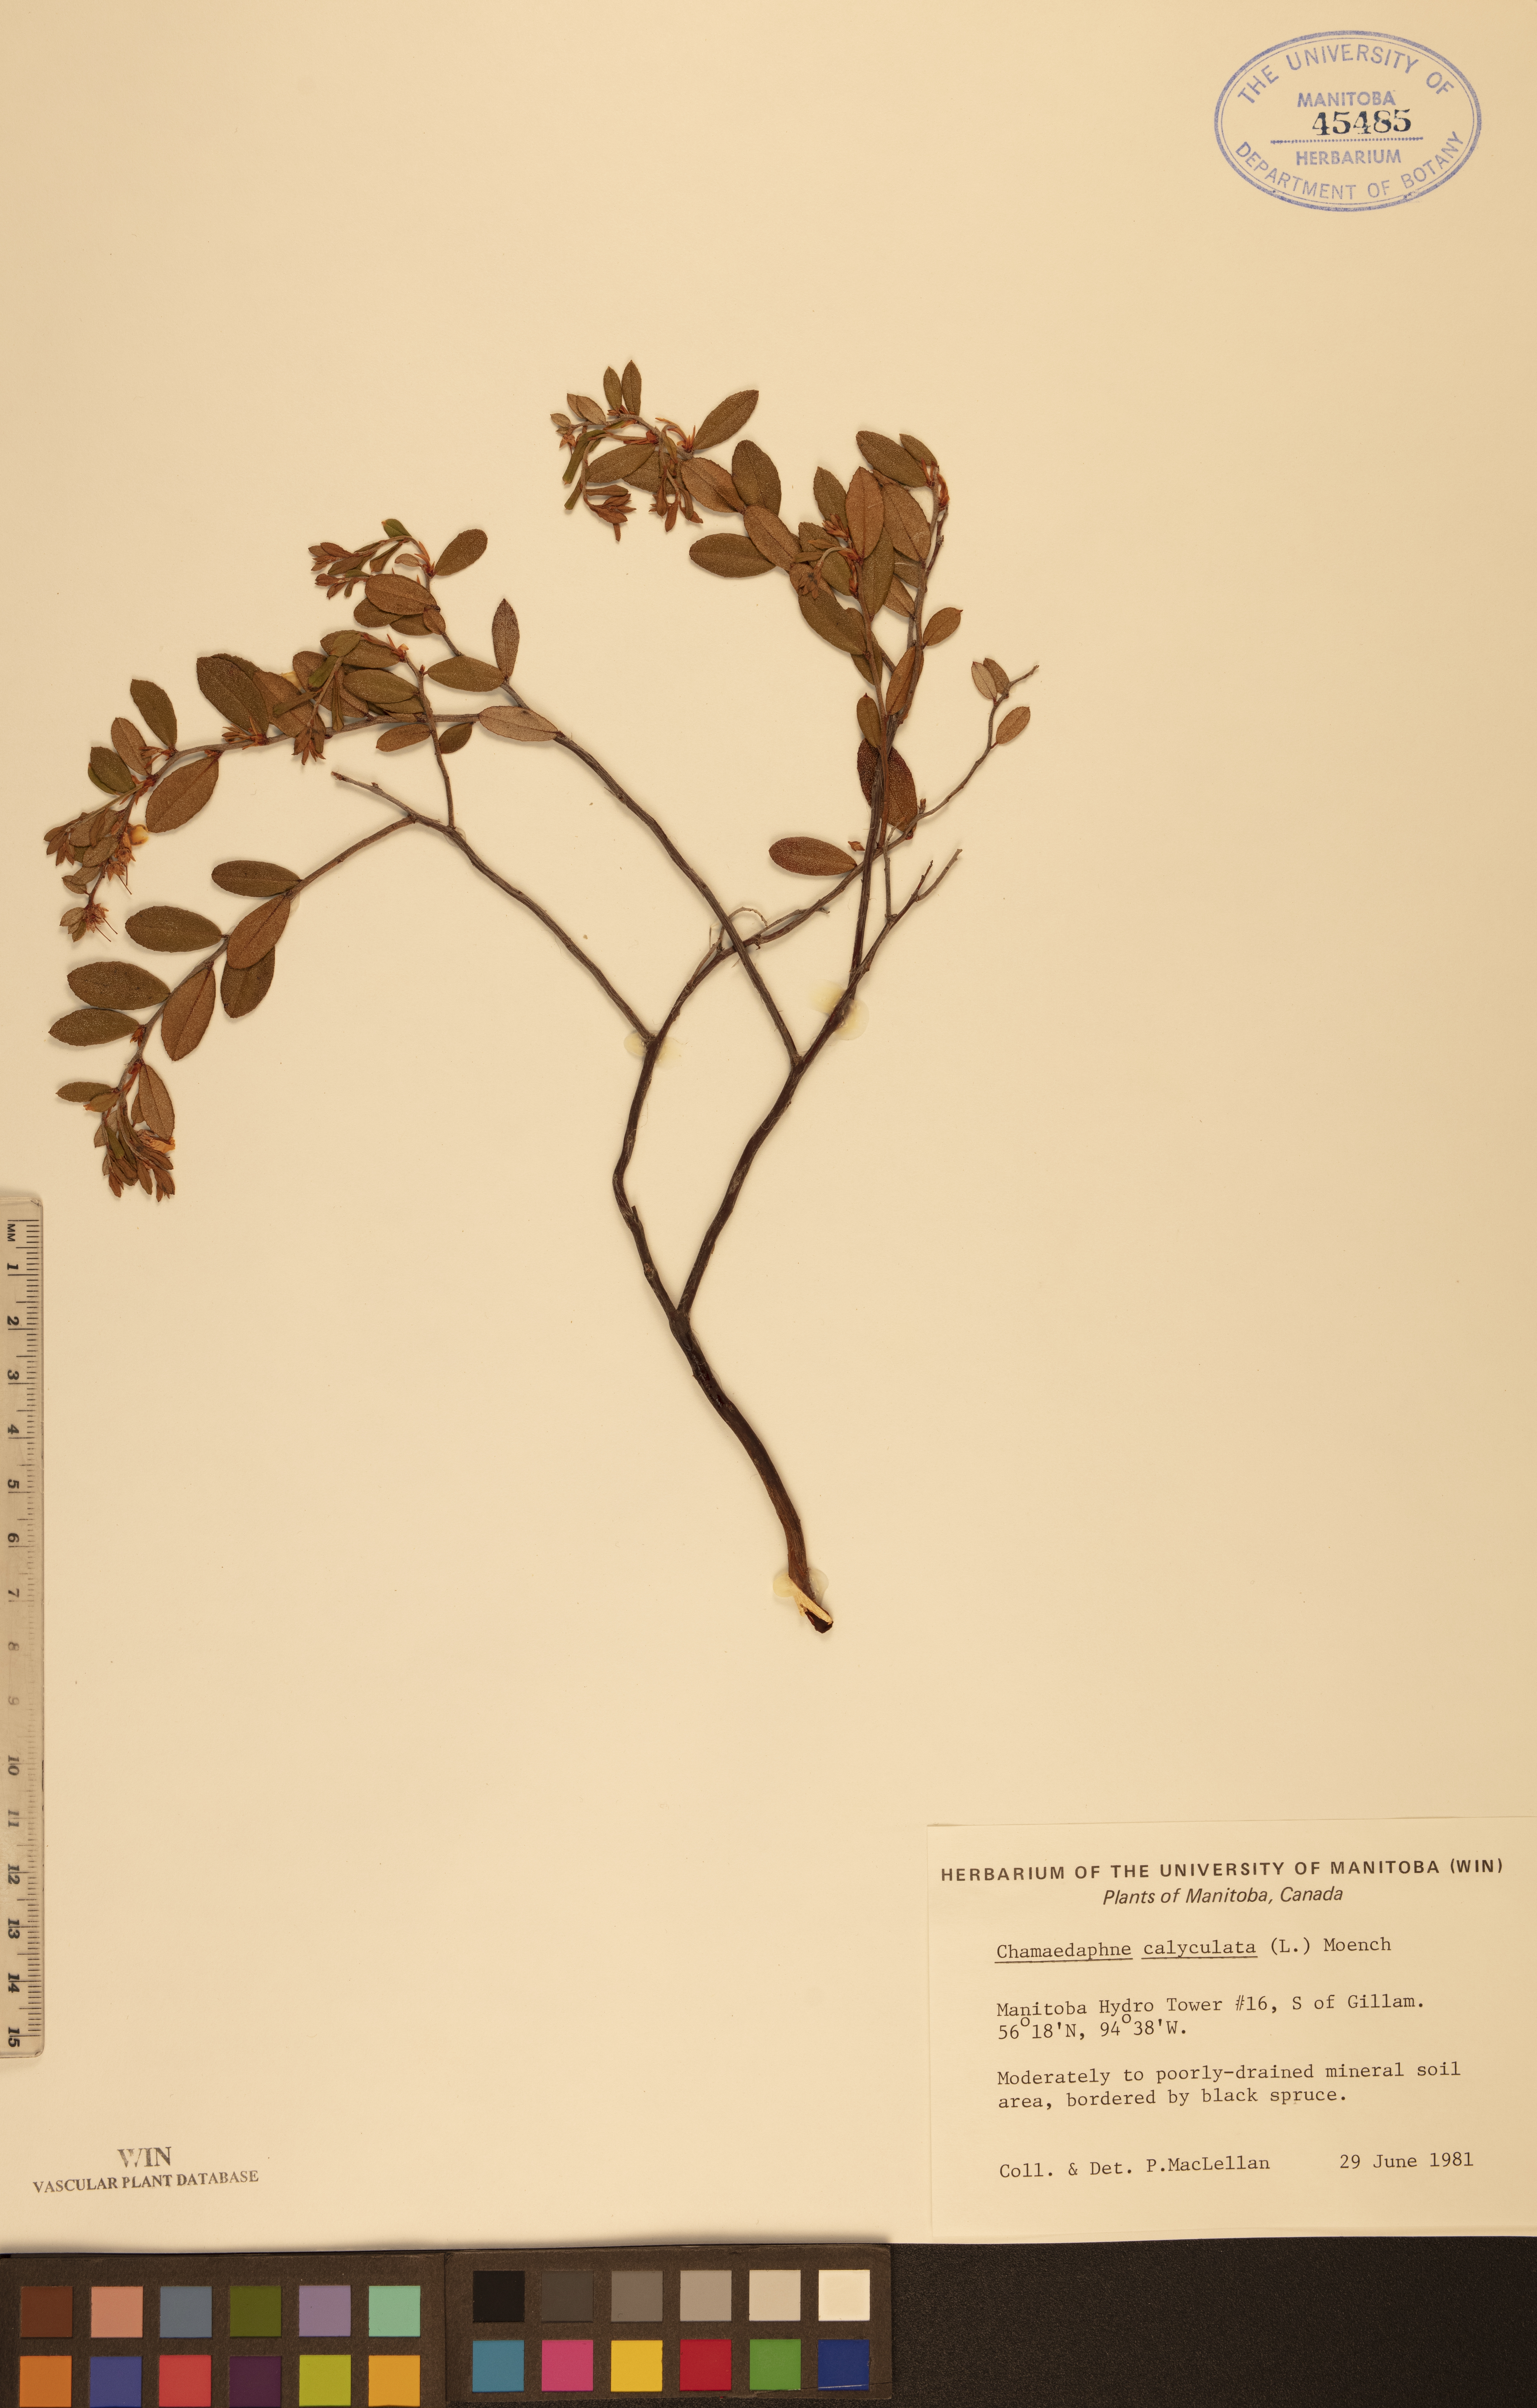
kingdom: Plantae
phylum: Tracheophyta
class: Magnoliopsida
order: Ericales
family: Ericaceae
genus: Chamaedaphne
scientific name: Chamaedaphne calyculata
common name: Leatherleaf
